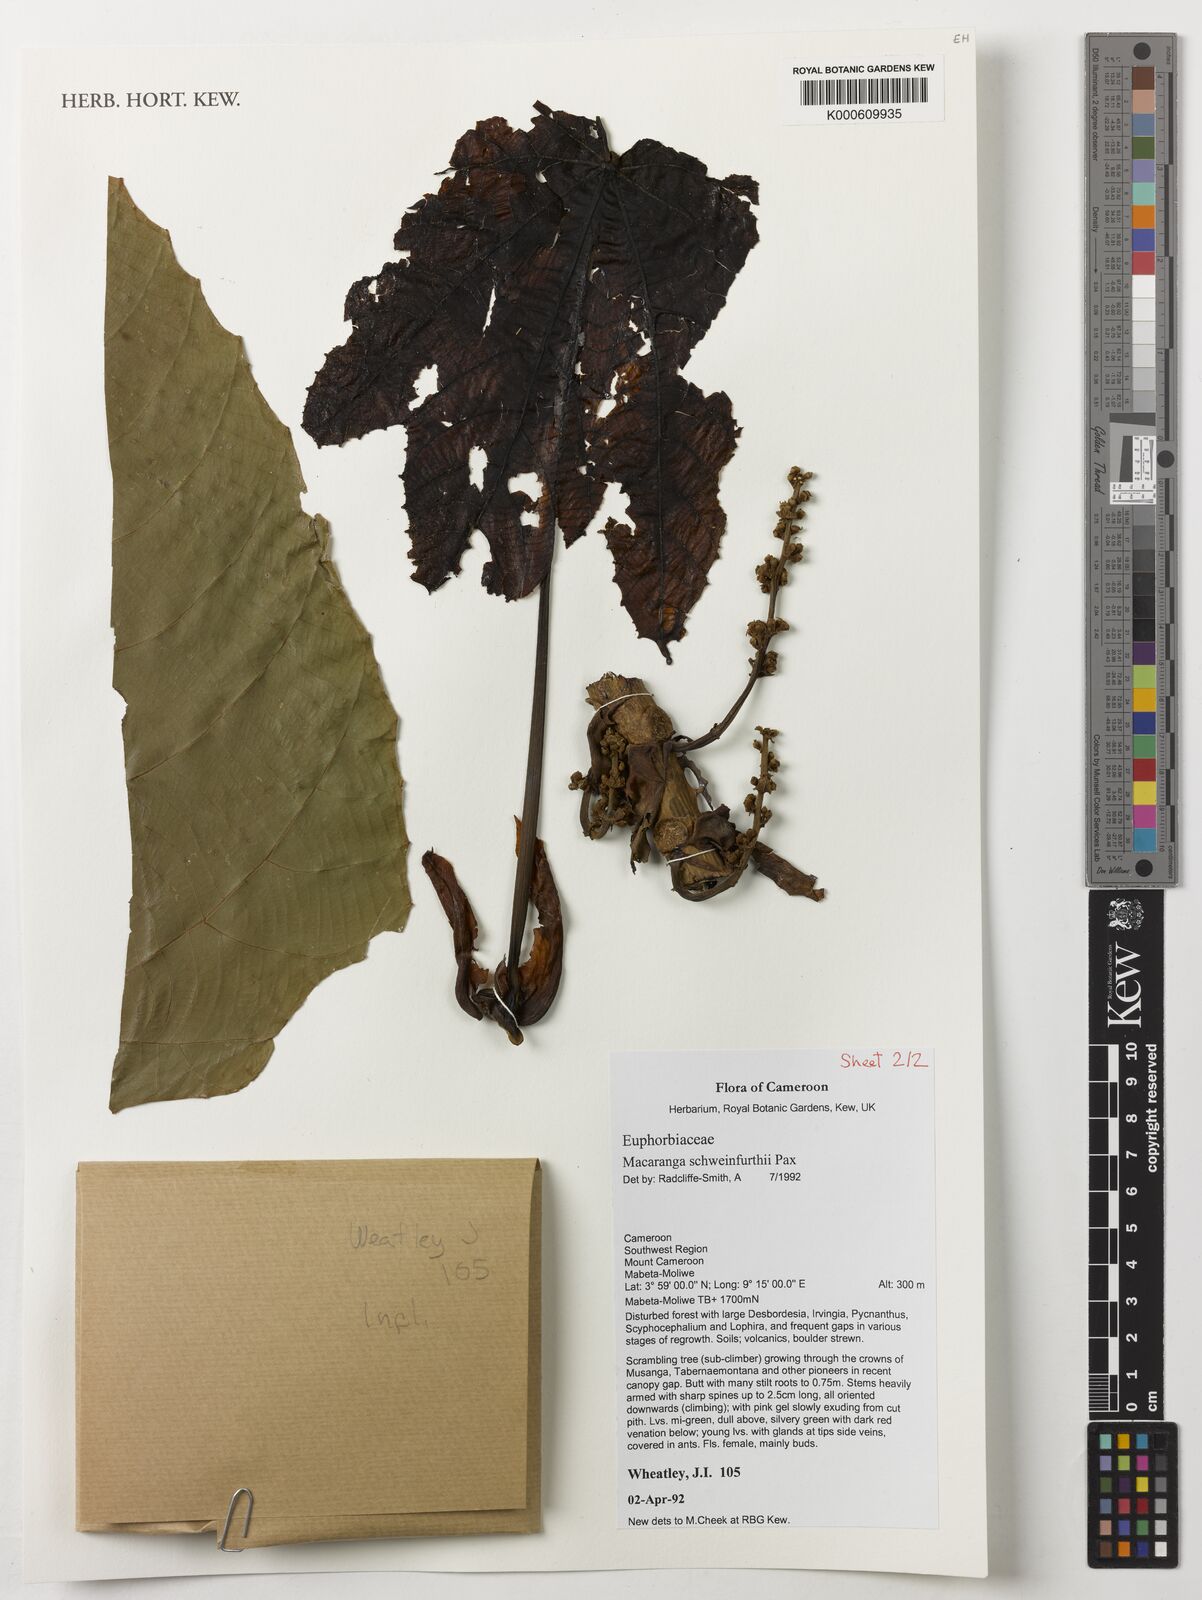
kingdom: Plantae
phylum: Tracheophyta
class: Magnoliopsida
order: Malpighiales
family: Euphorbiaceae
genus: Macaranga
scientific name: Macaranga schweinfurthii
